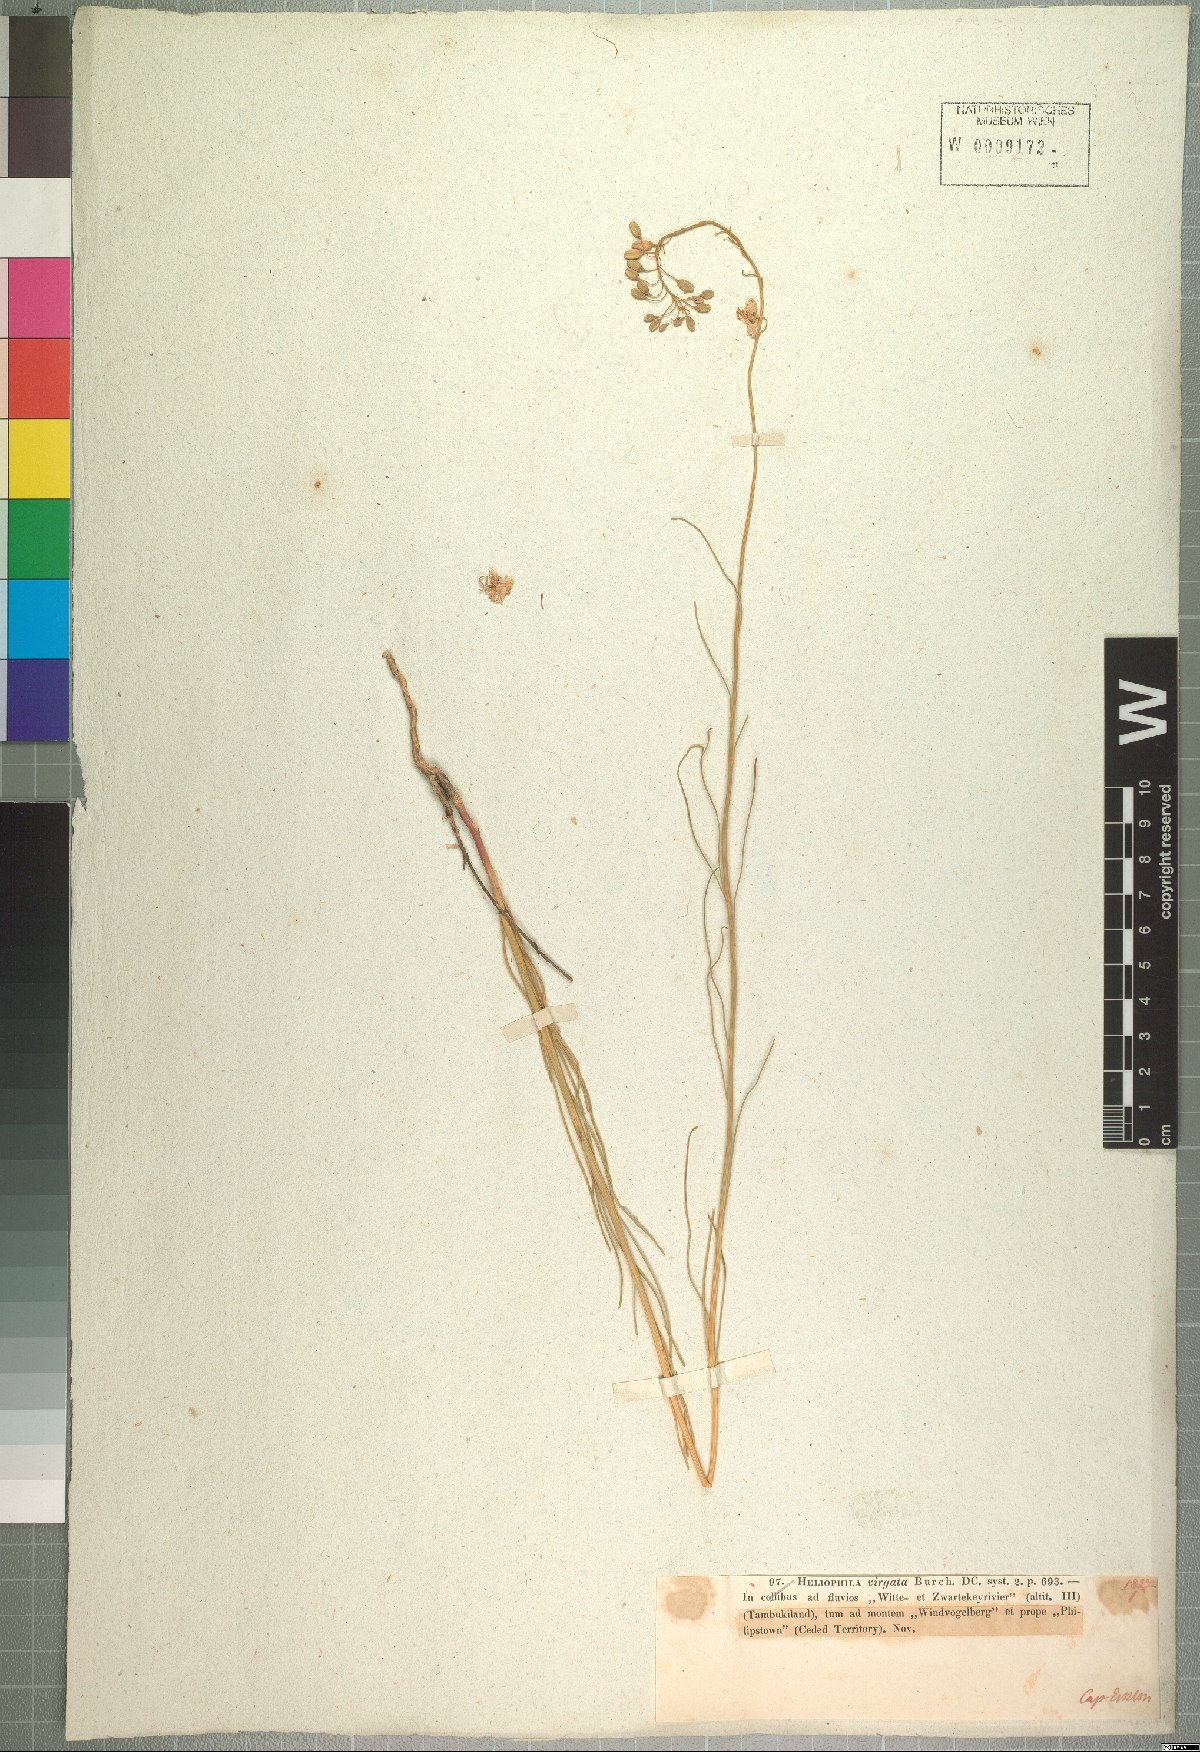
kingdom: Plantae
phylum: Tracheophyta
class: Magnoliopsida
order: Brassicales
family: Brassicaceae
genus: Heliophila
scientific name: Heliophila rigidiuscula
